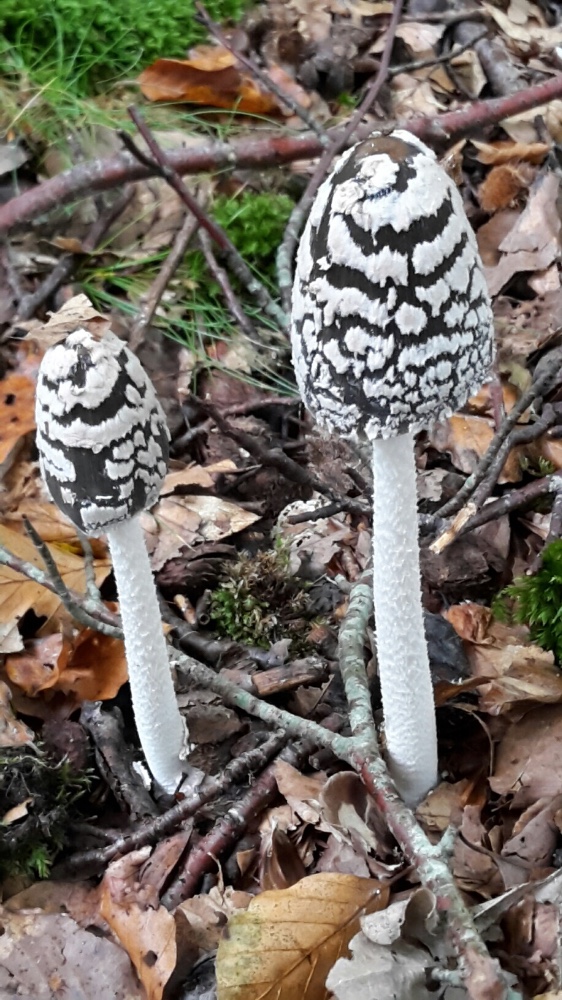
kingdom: Fungi
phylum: Basidiomycota
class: Agaricomycetes
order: Agaricales
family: Psathyrellaceae
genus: Coprinopsis
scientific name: Coprinopsis picacea
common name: skade-blækhat
